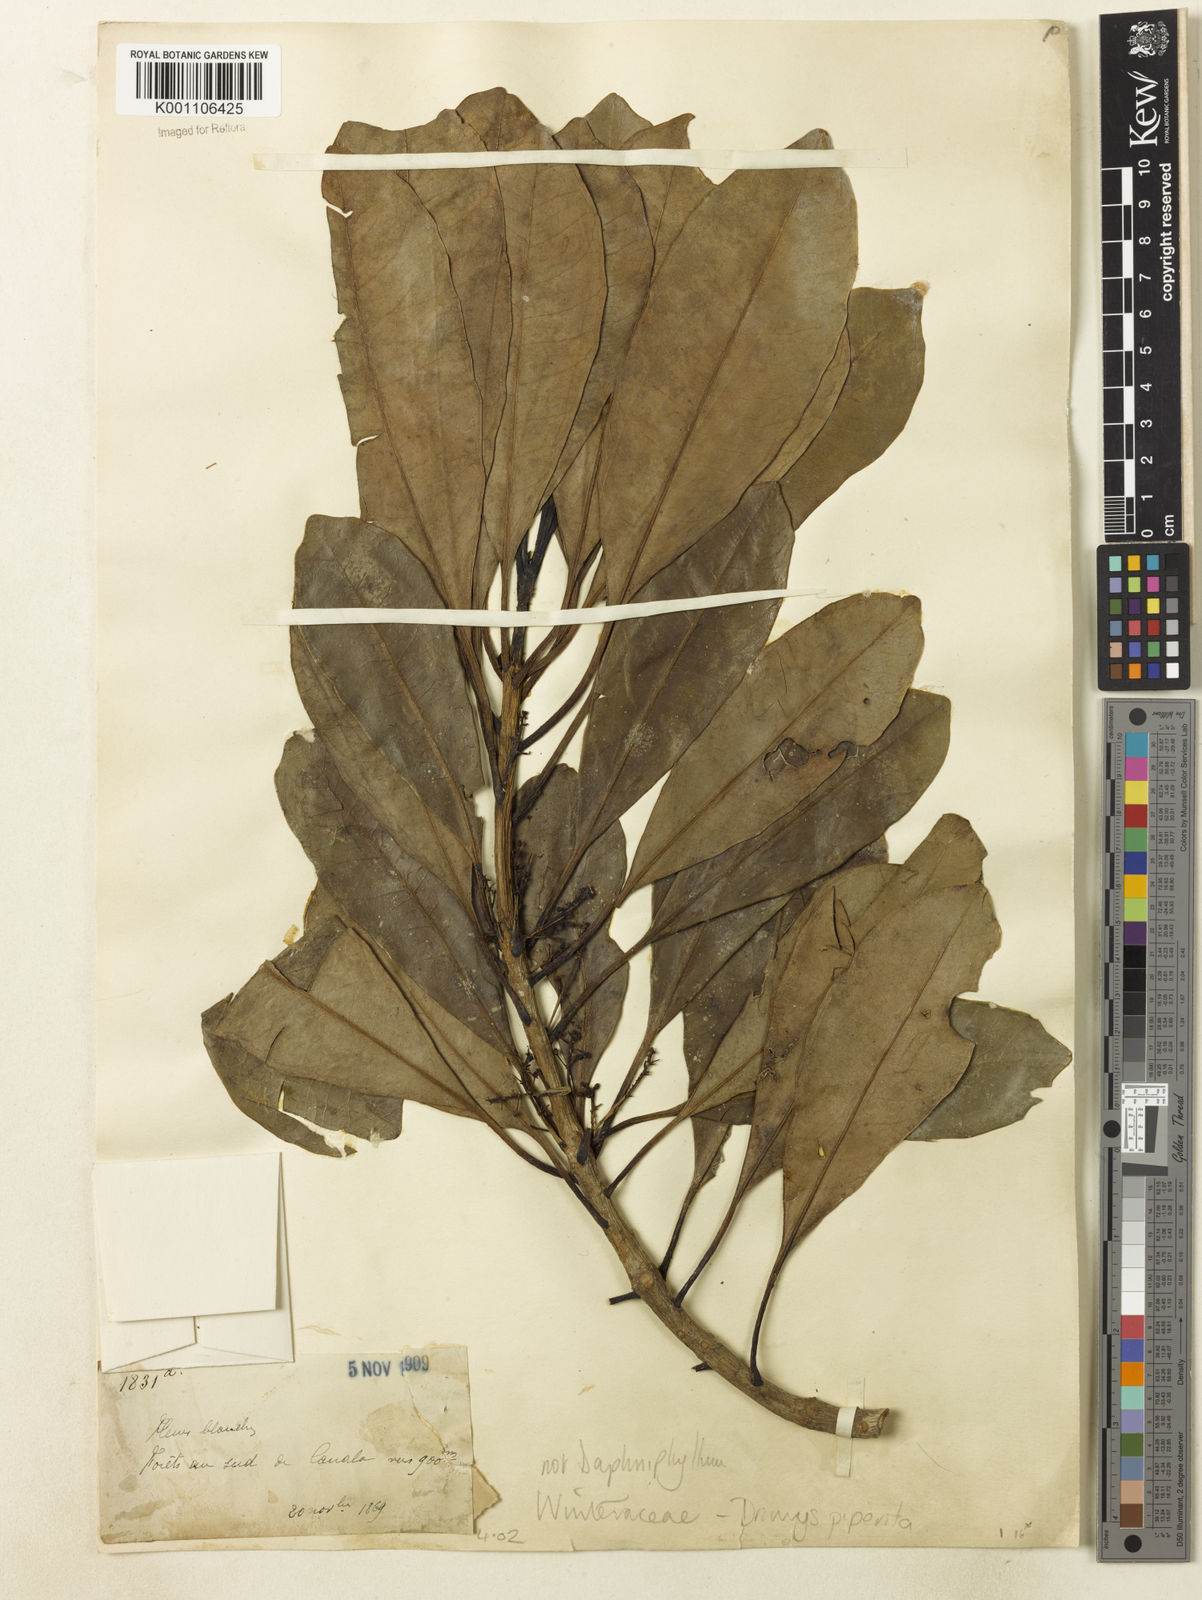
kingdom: Plantae
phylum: Tracheophyta
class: Magnoliopsida
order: Canellales
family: Winteraceae
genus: Drimys
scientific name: Drimys
